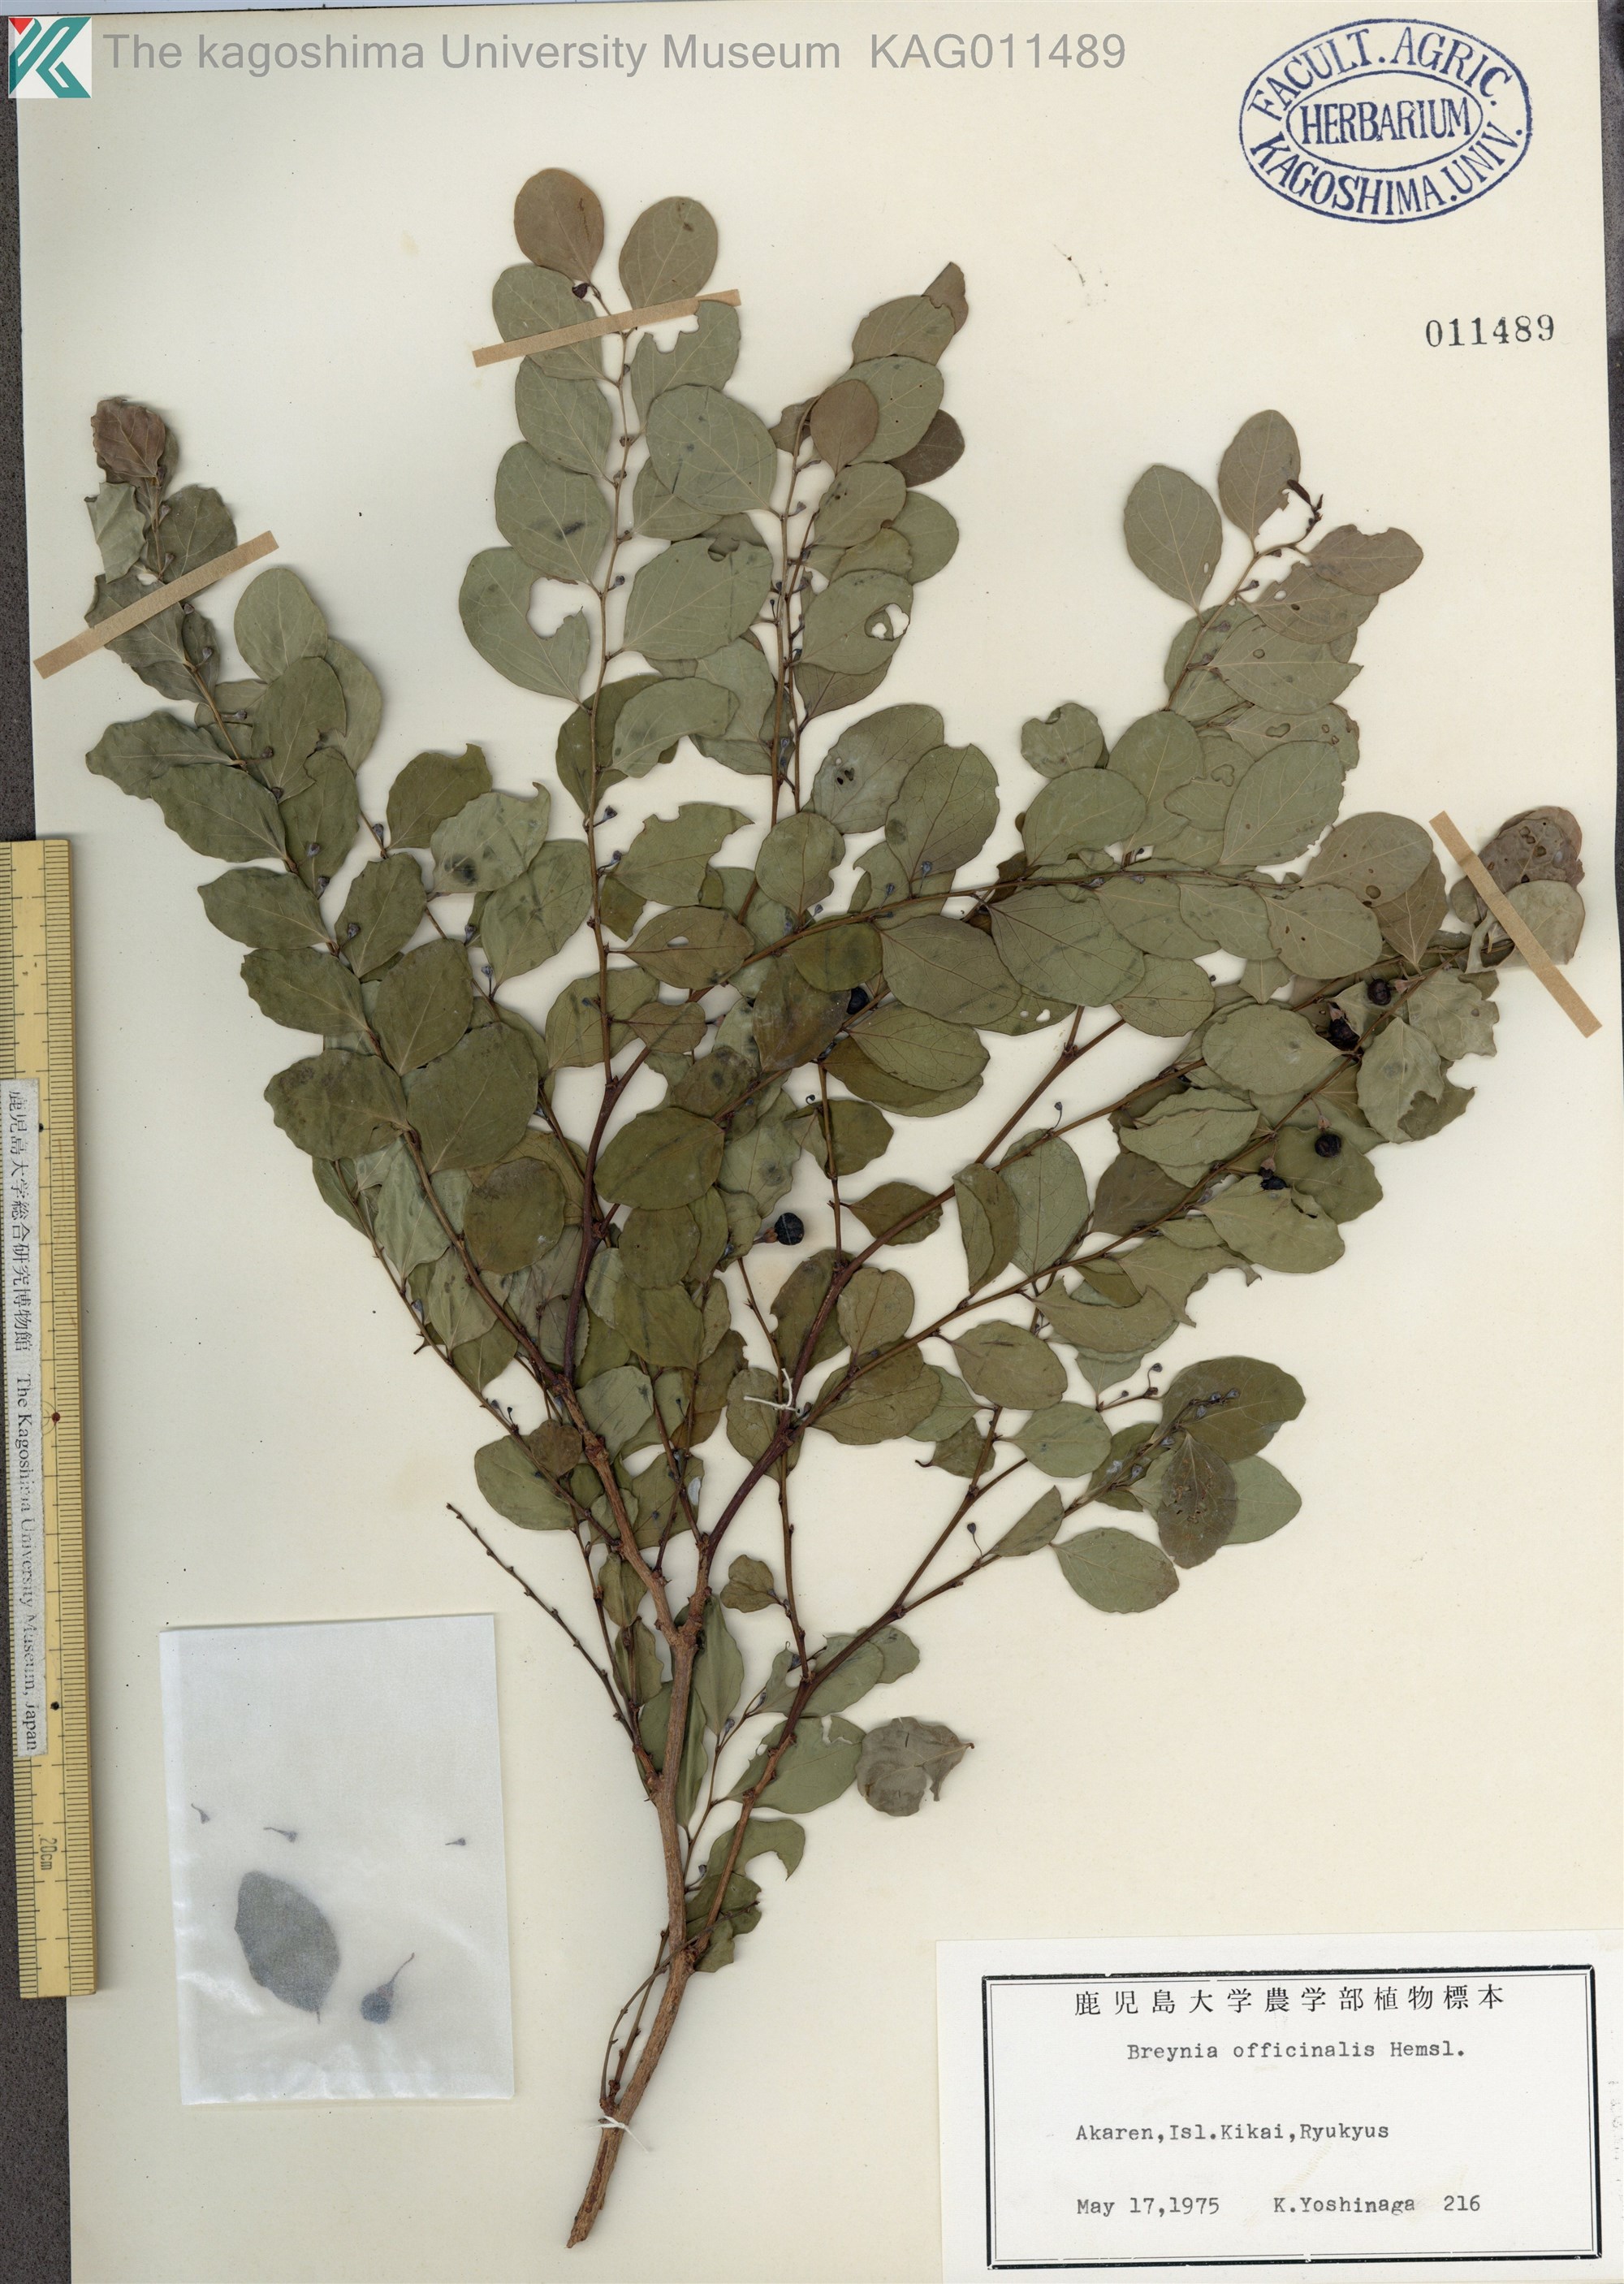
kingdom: Plantae
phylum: Tracheophyta
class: Magnoliopsida
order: Malpighiales
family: Phyllanthaceae
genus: Breynia
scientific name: Breynia vitis-idaea
